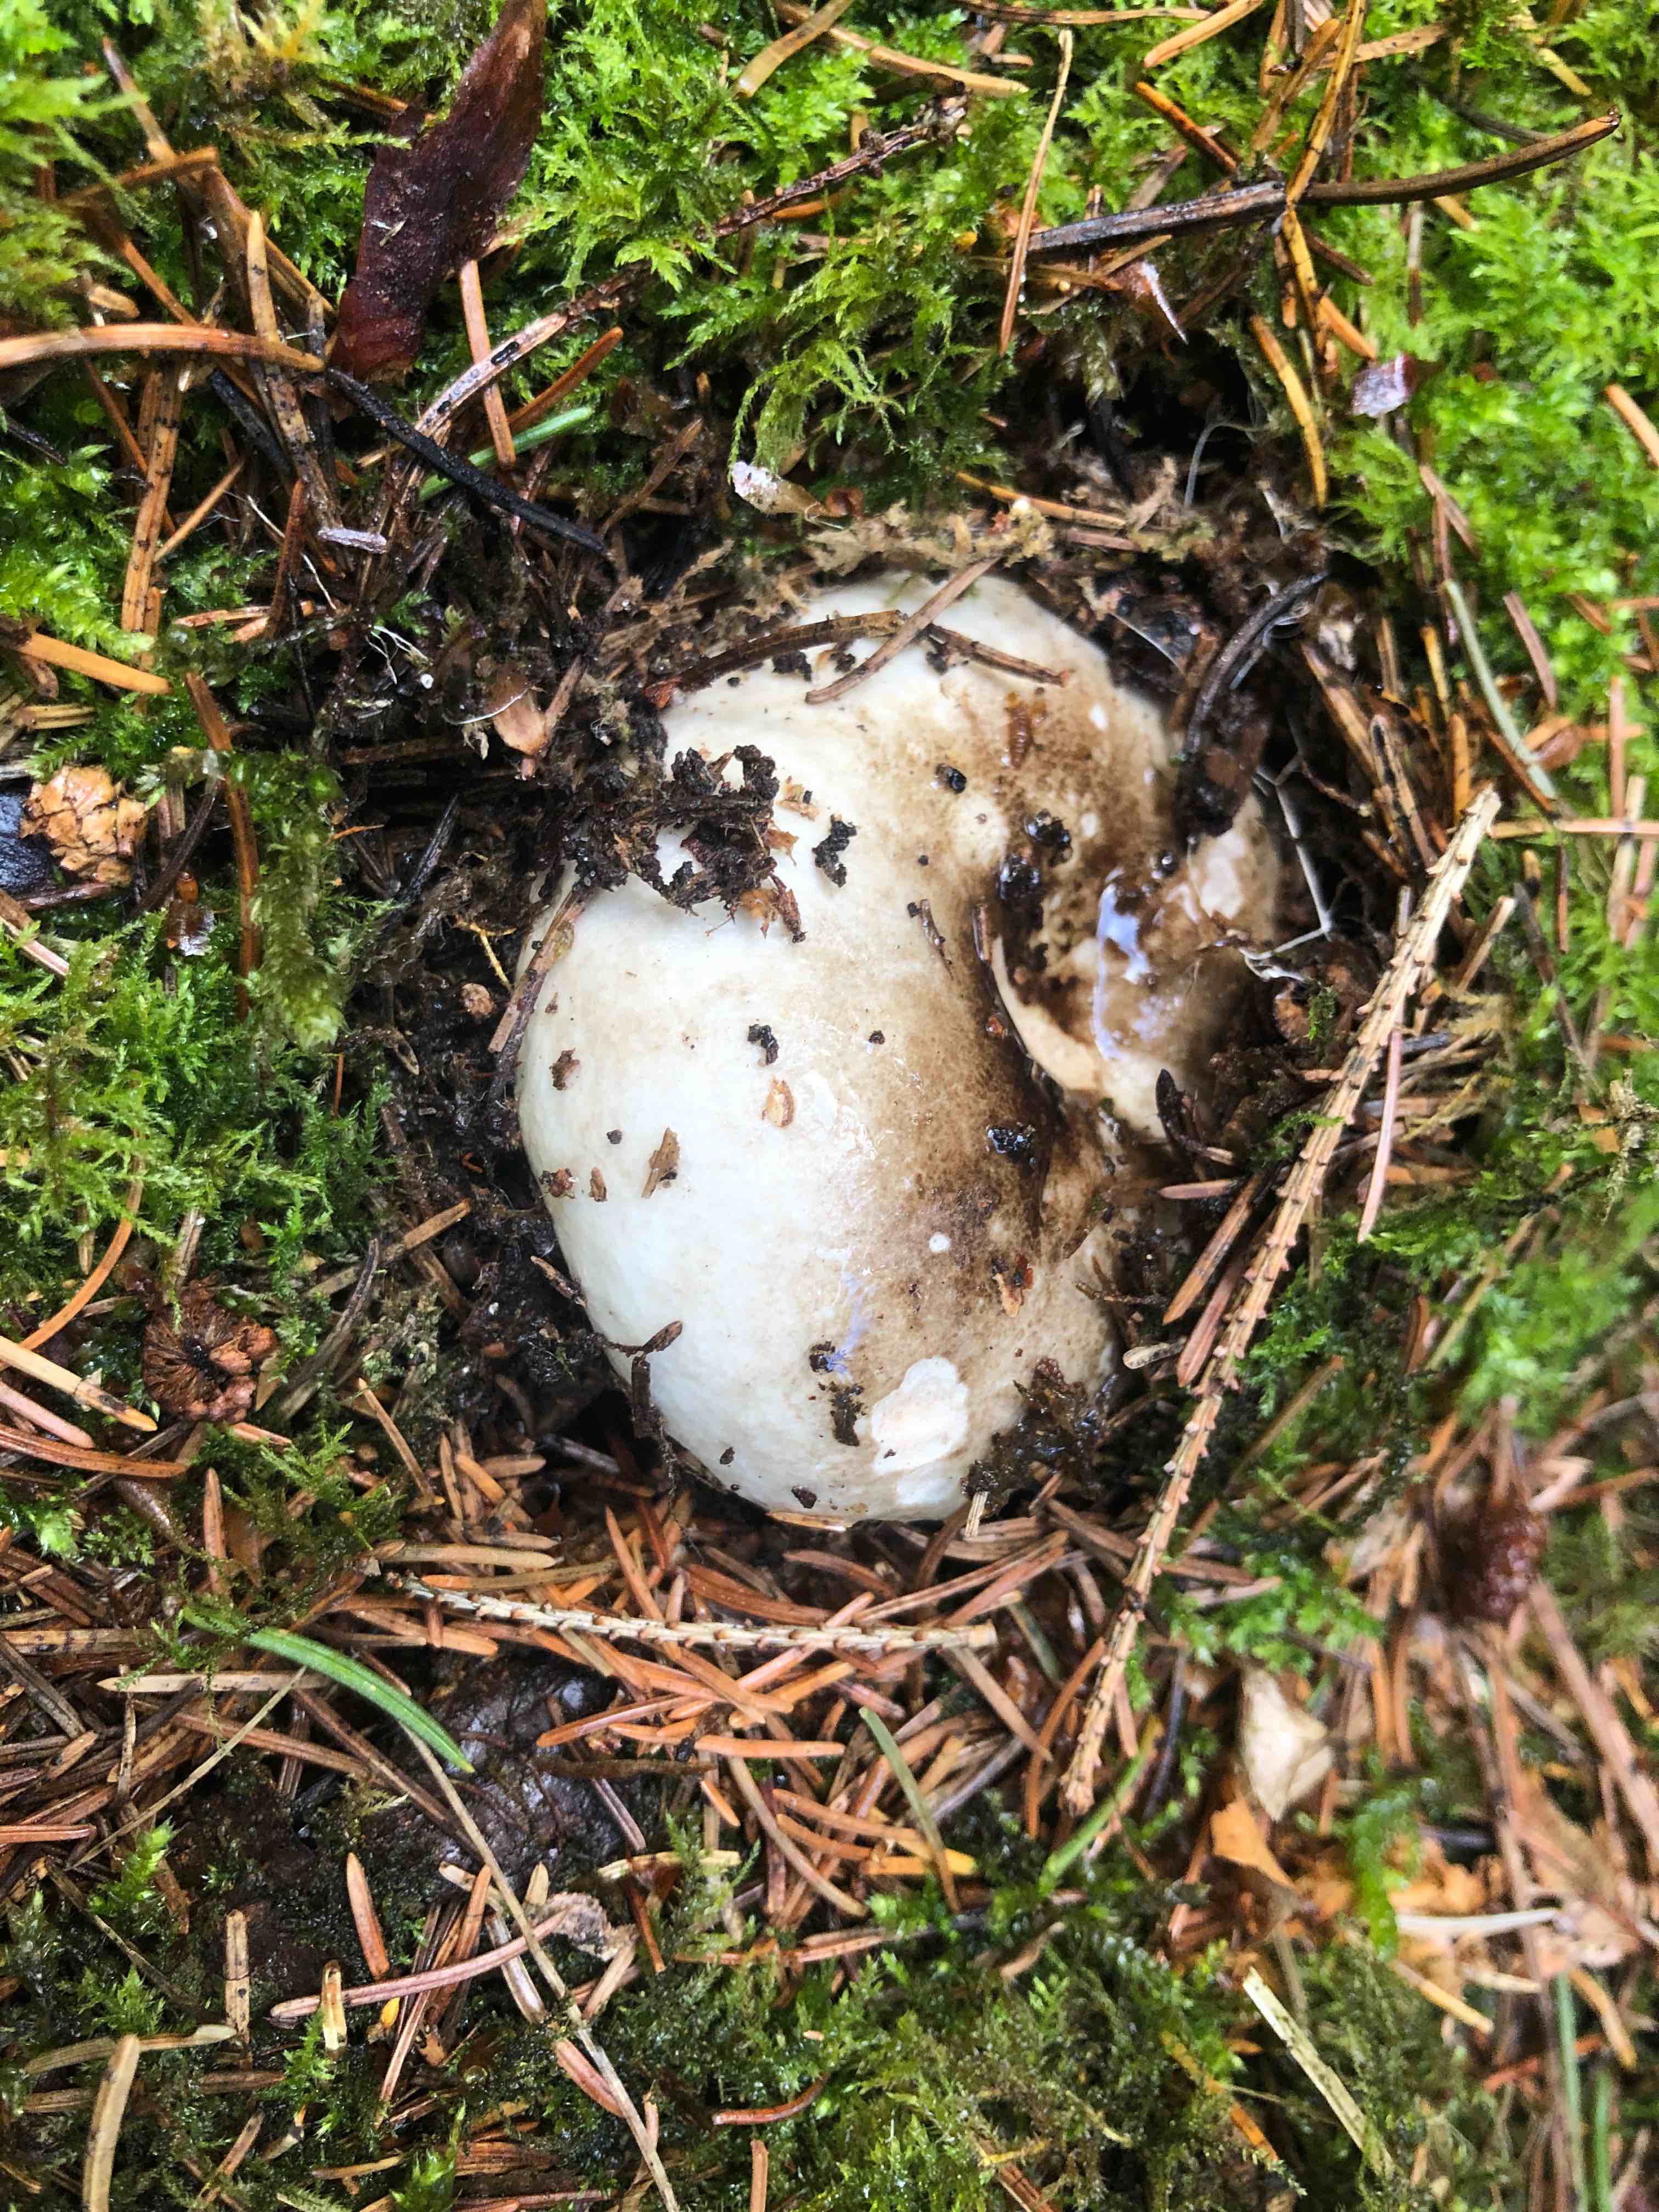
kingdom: Fungi
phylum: Basidiomycota
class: Agaricomycetes
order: Russulales
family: Russulaceae
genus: Russula
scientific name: Russula adusta
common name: sværtende skørhat
